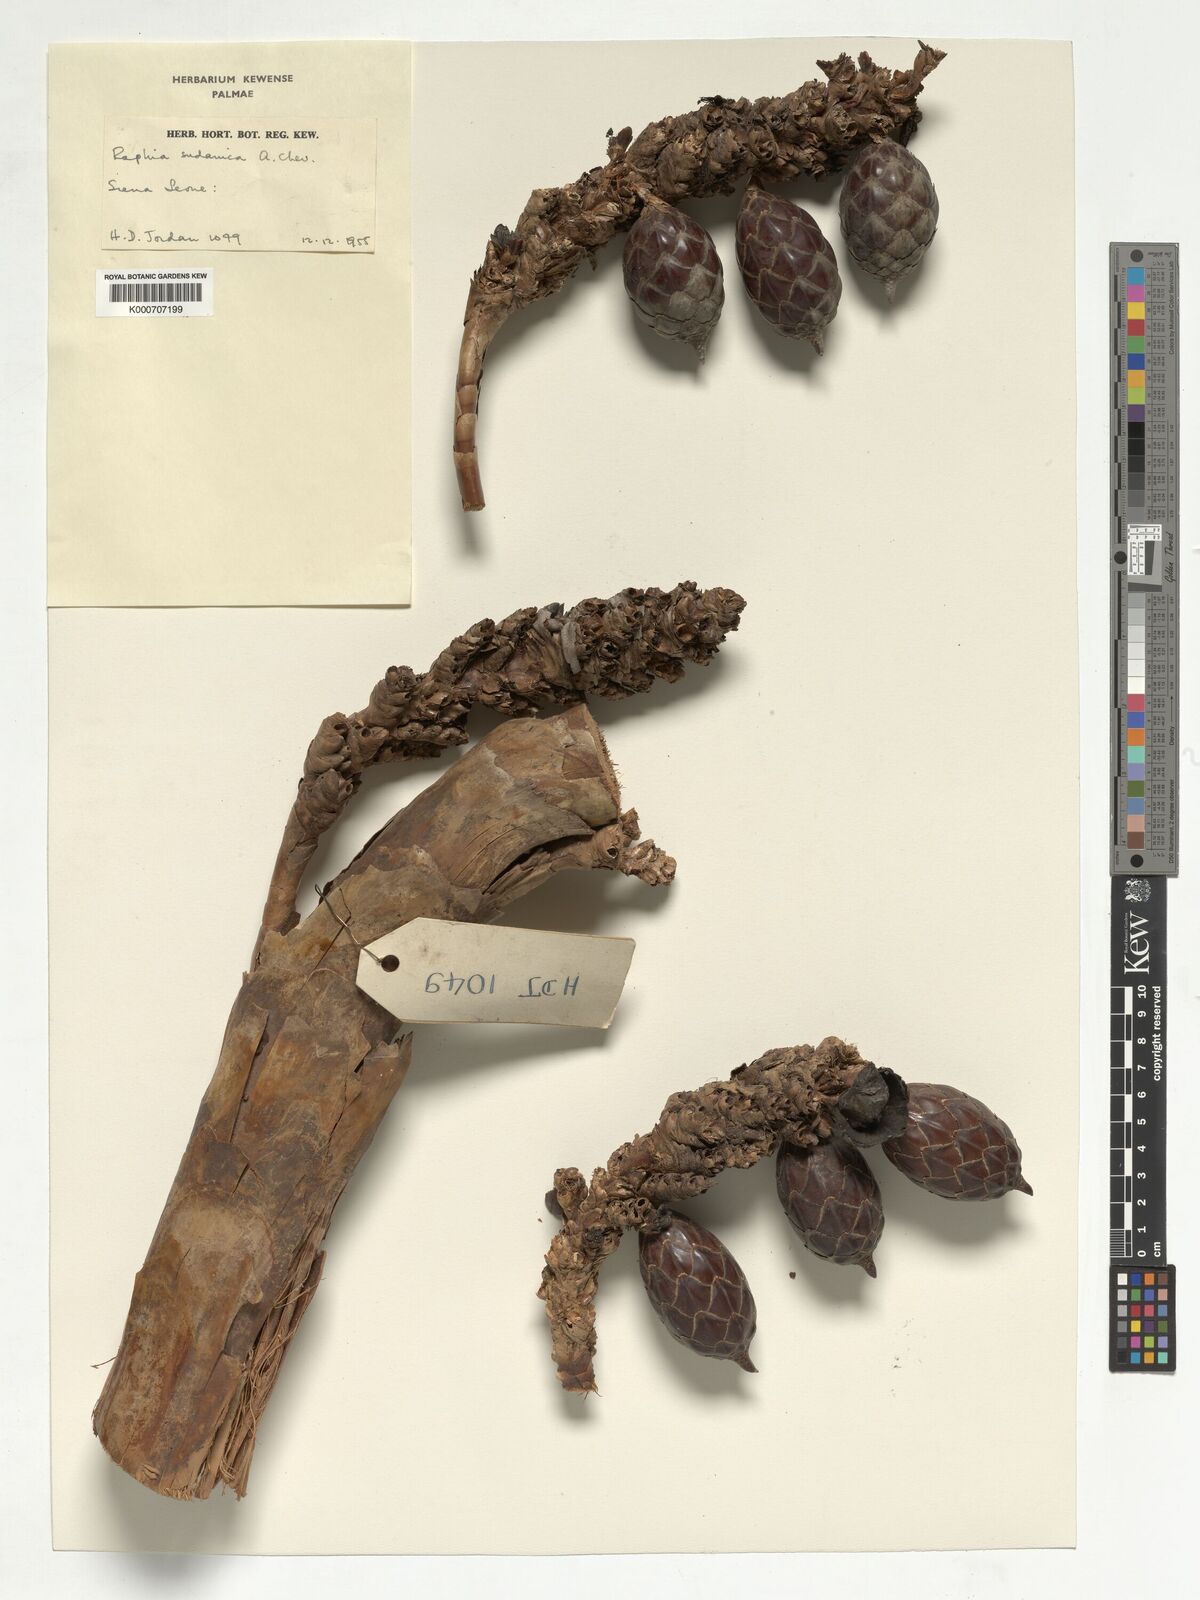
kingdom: Plantae
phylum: Tracheophyta
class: Liliopsida
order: Arecales
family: Arecaceae
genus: Raphia
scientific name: Raphia sudanica
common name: Northern raphia
